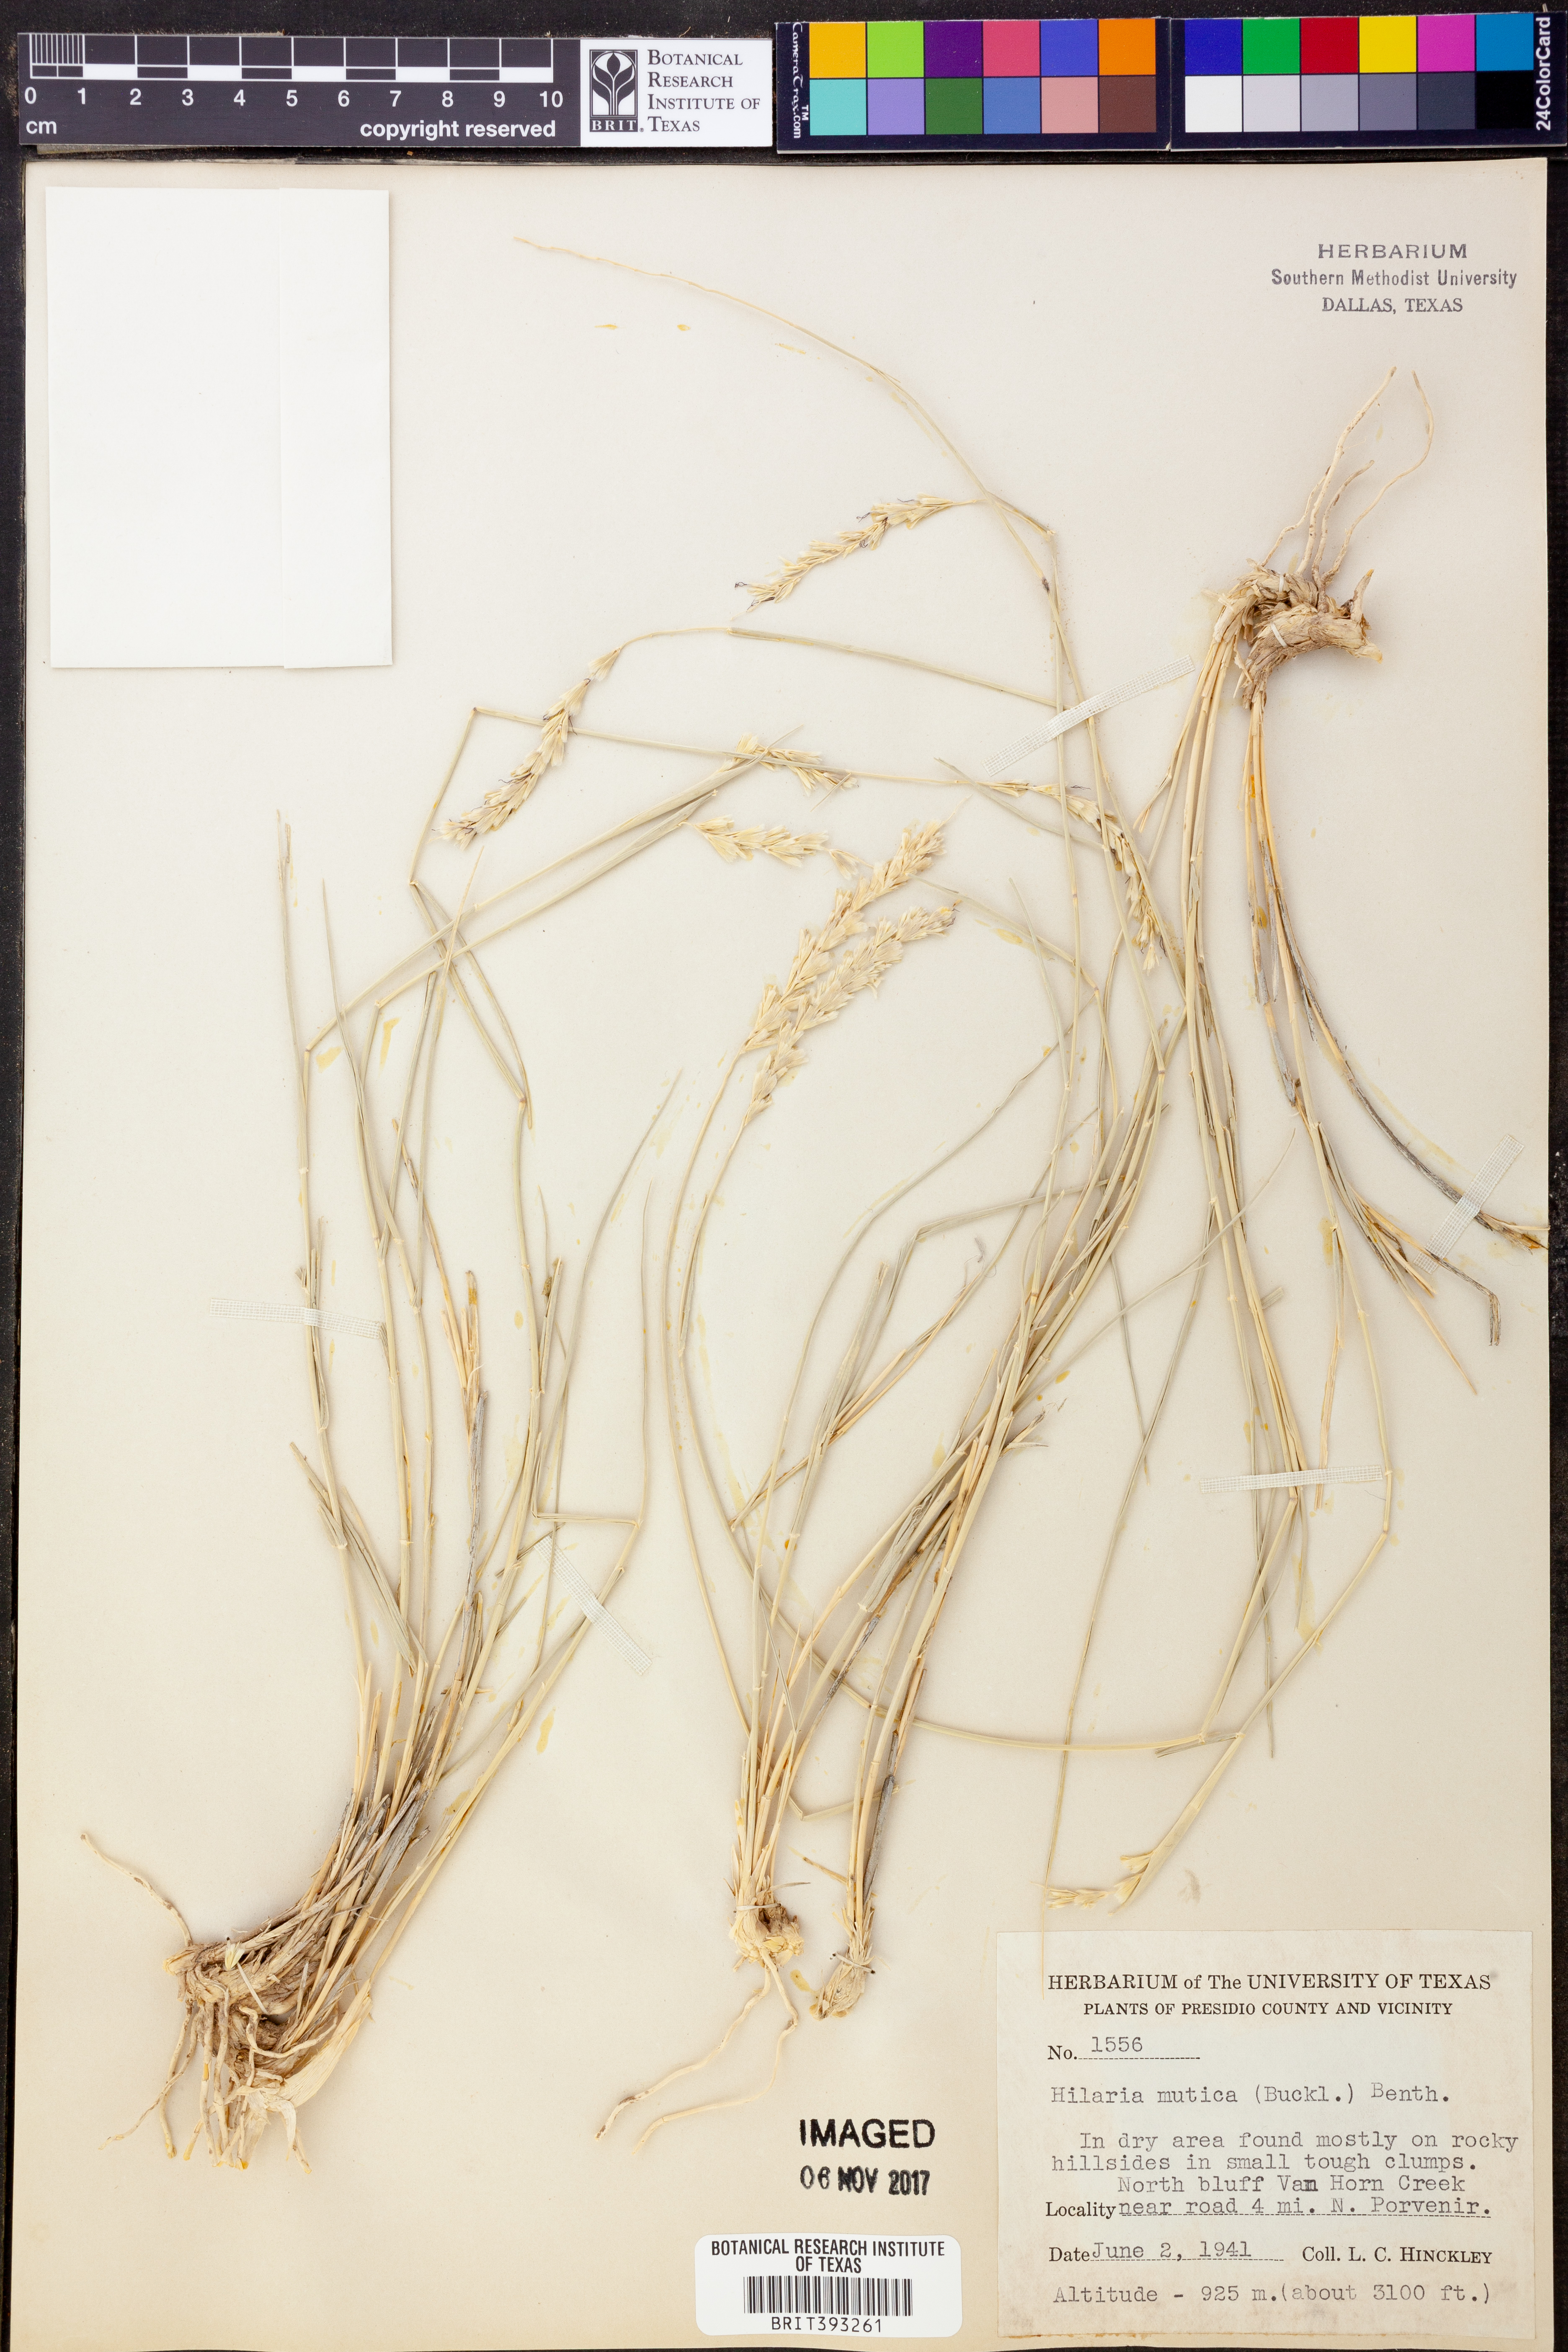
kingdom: Plantae
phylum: Tracheophyta
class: Liliopsida
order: Poales
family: Poaceae
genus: Hilaria
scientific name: Hilaria mutica
